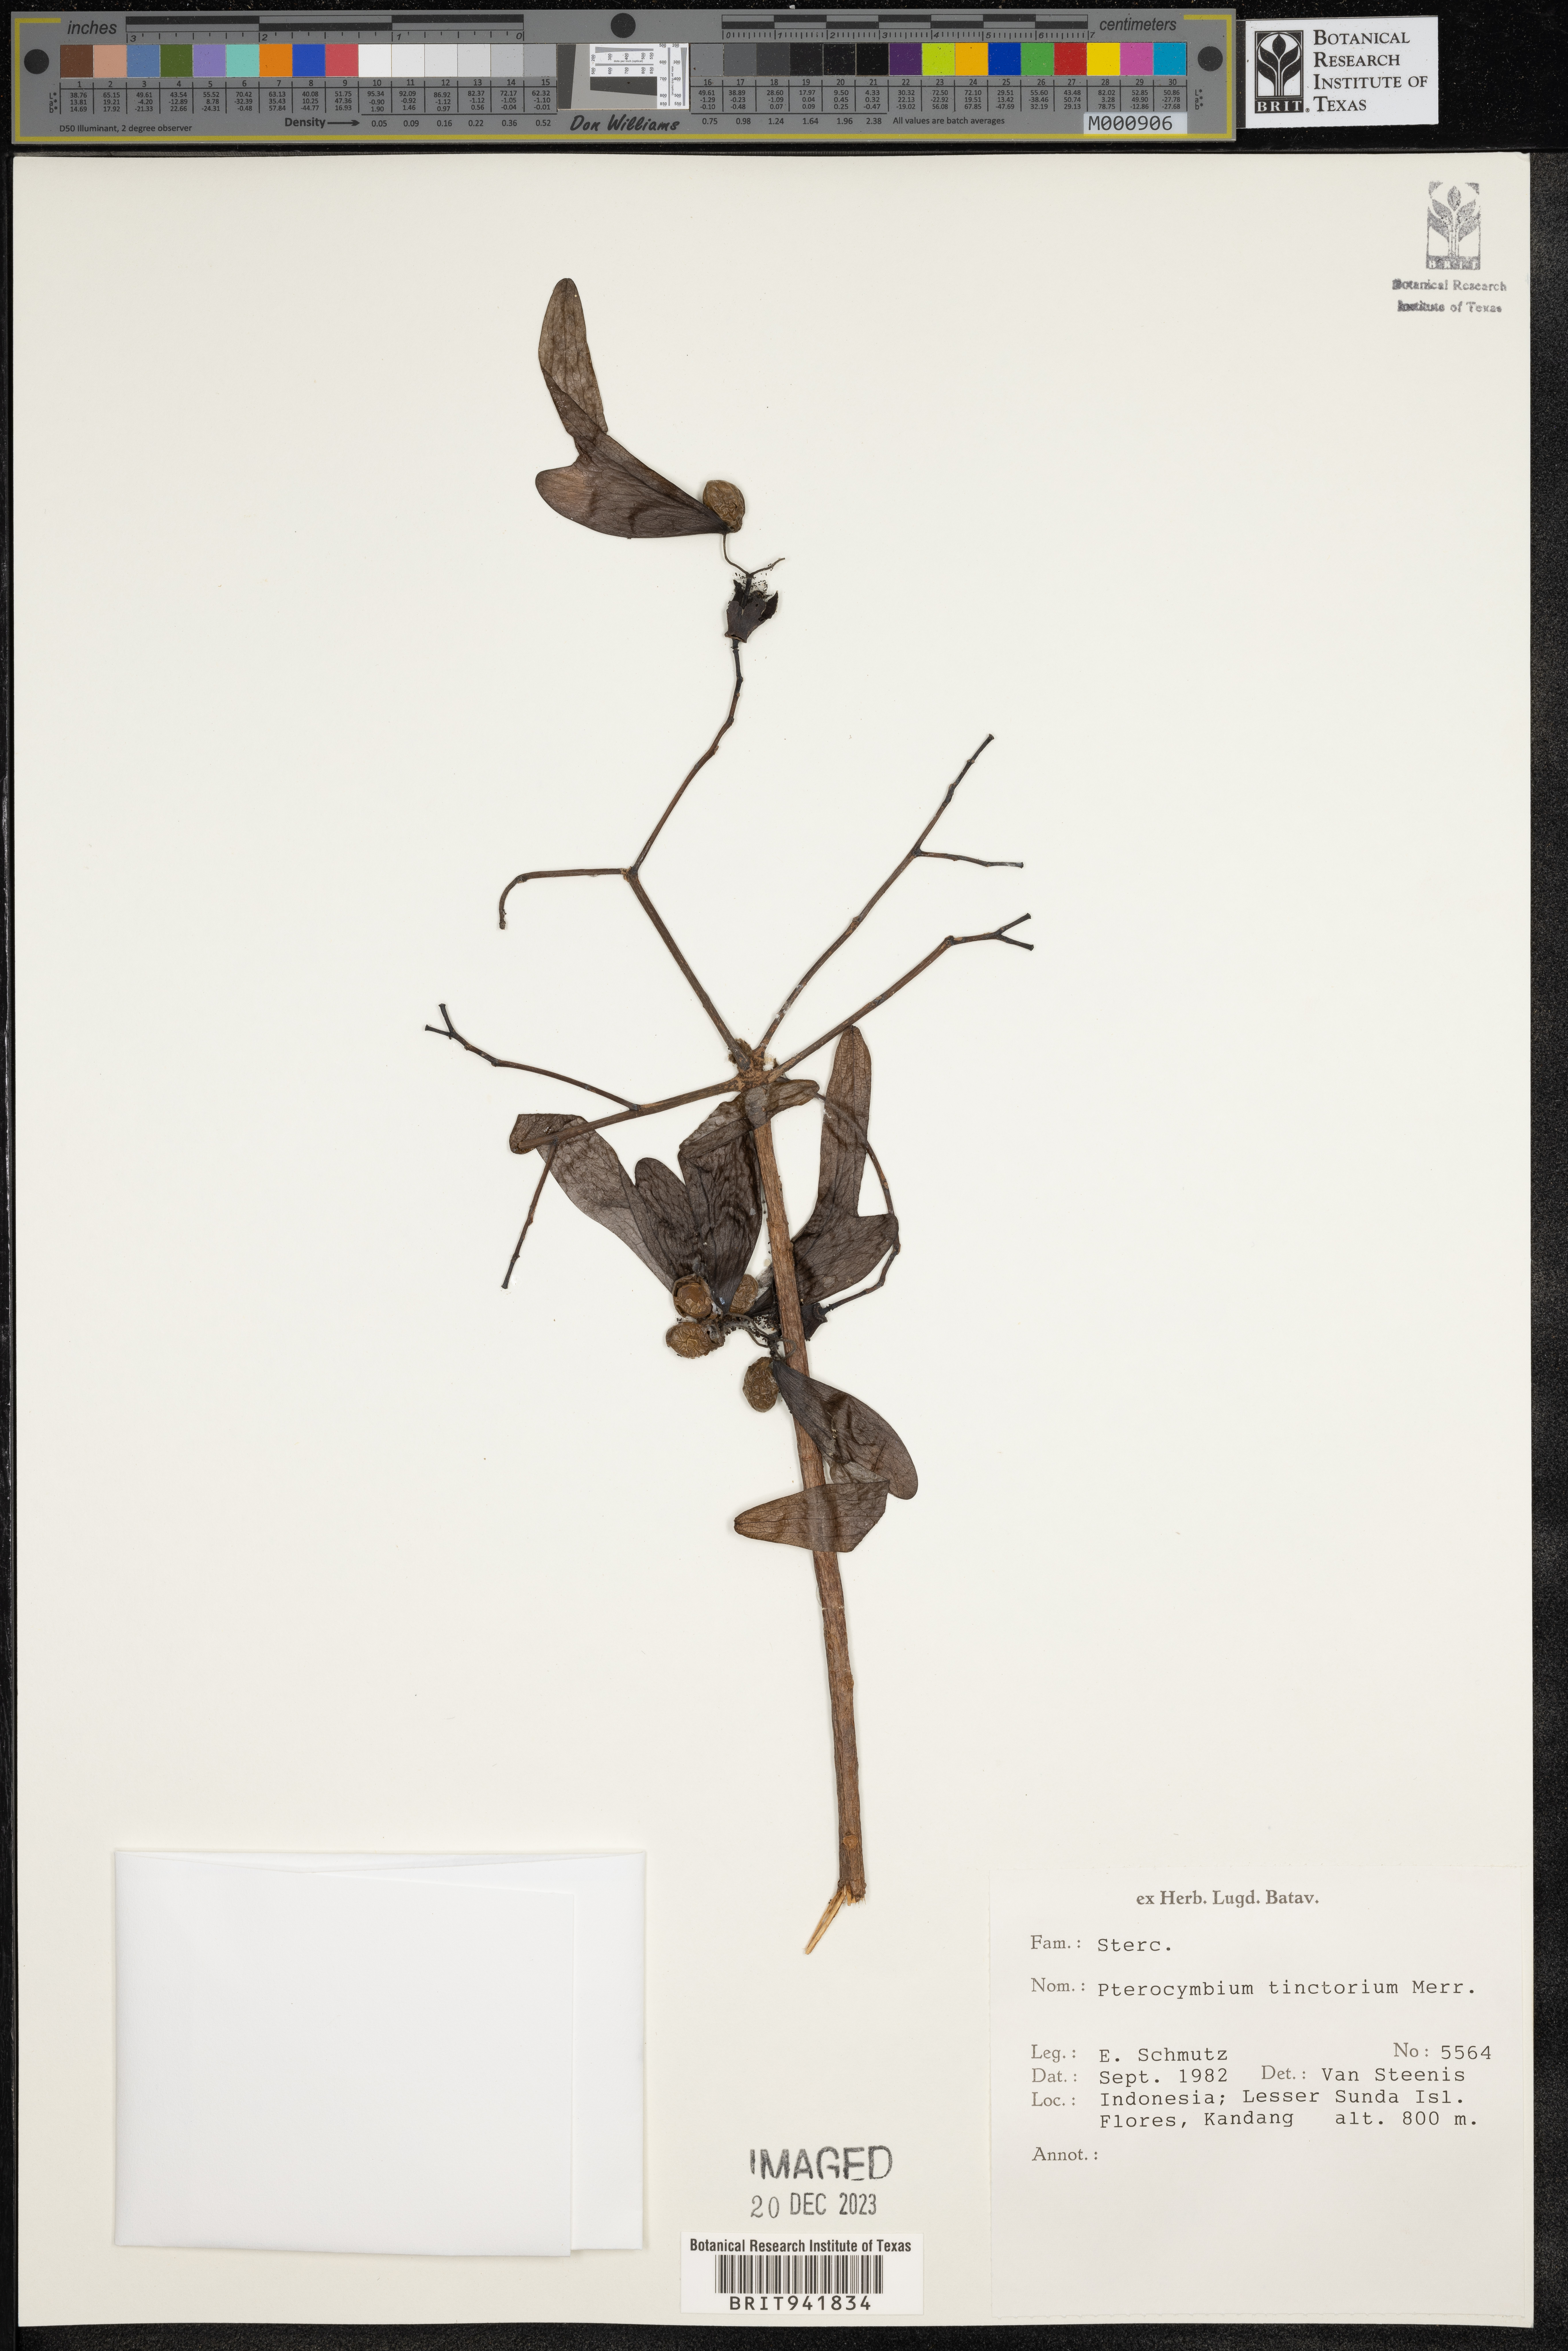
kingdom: Plantae
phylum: Tracheophyta
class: Magnoliopsida
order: Malvales
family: Malvaceae
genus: Melochia
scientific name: Melochia
